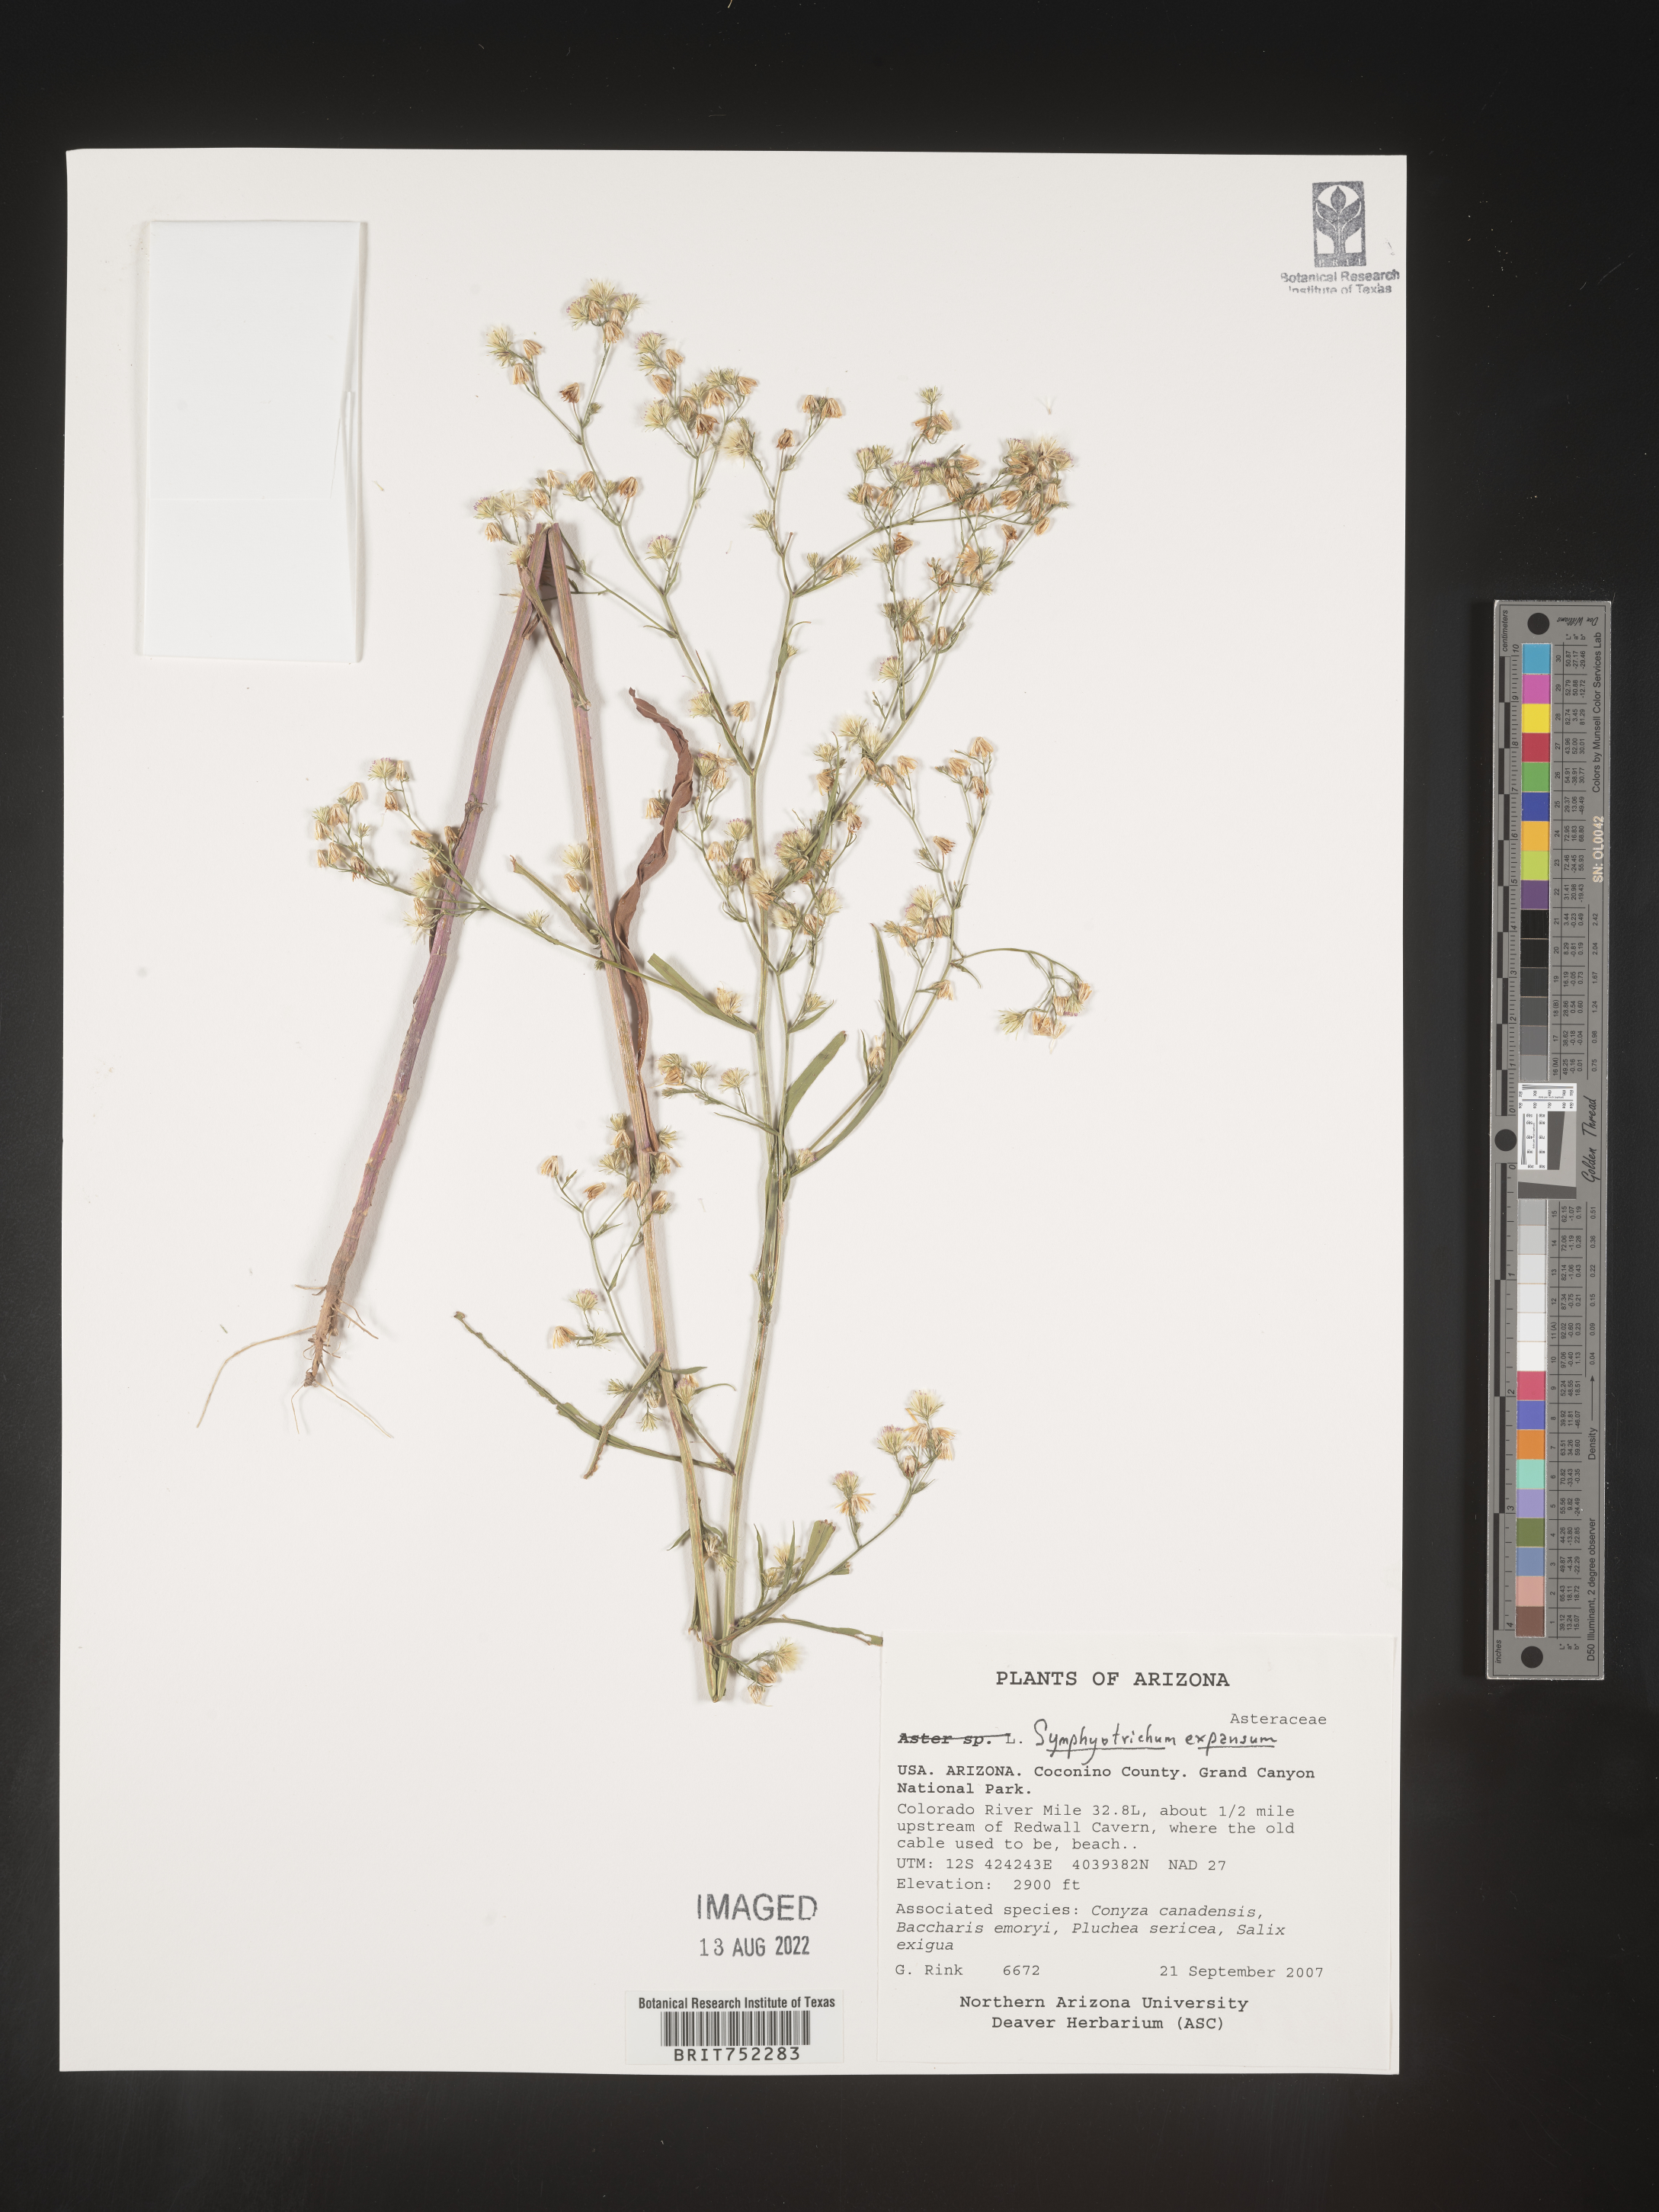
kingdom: Plantae
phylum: Tracheophyta
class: Magnoliopsida
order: Asterales
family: Asteraceae
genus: Symphyotrichum
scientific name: Symphyotrichum expansum
